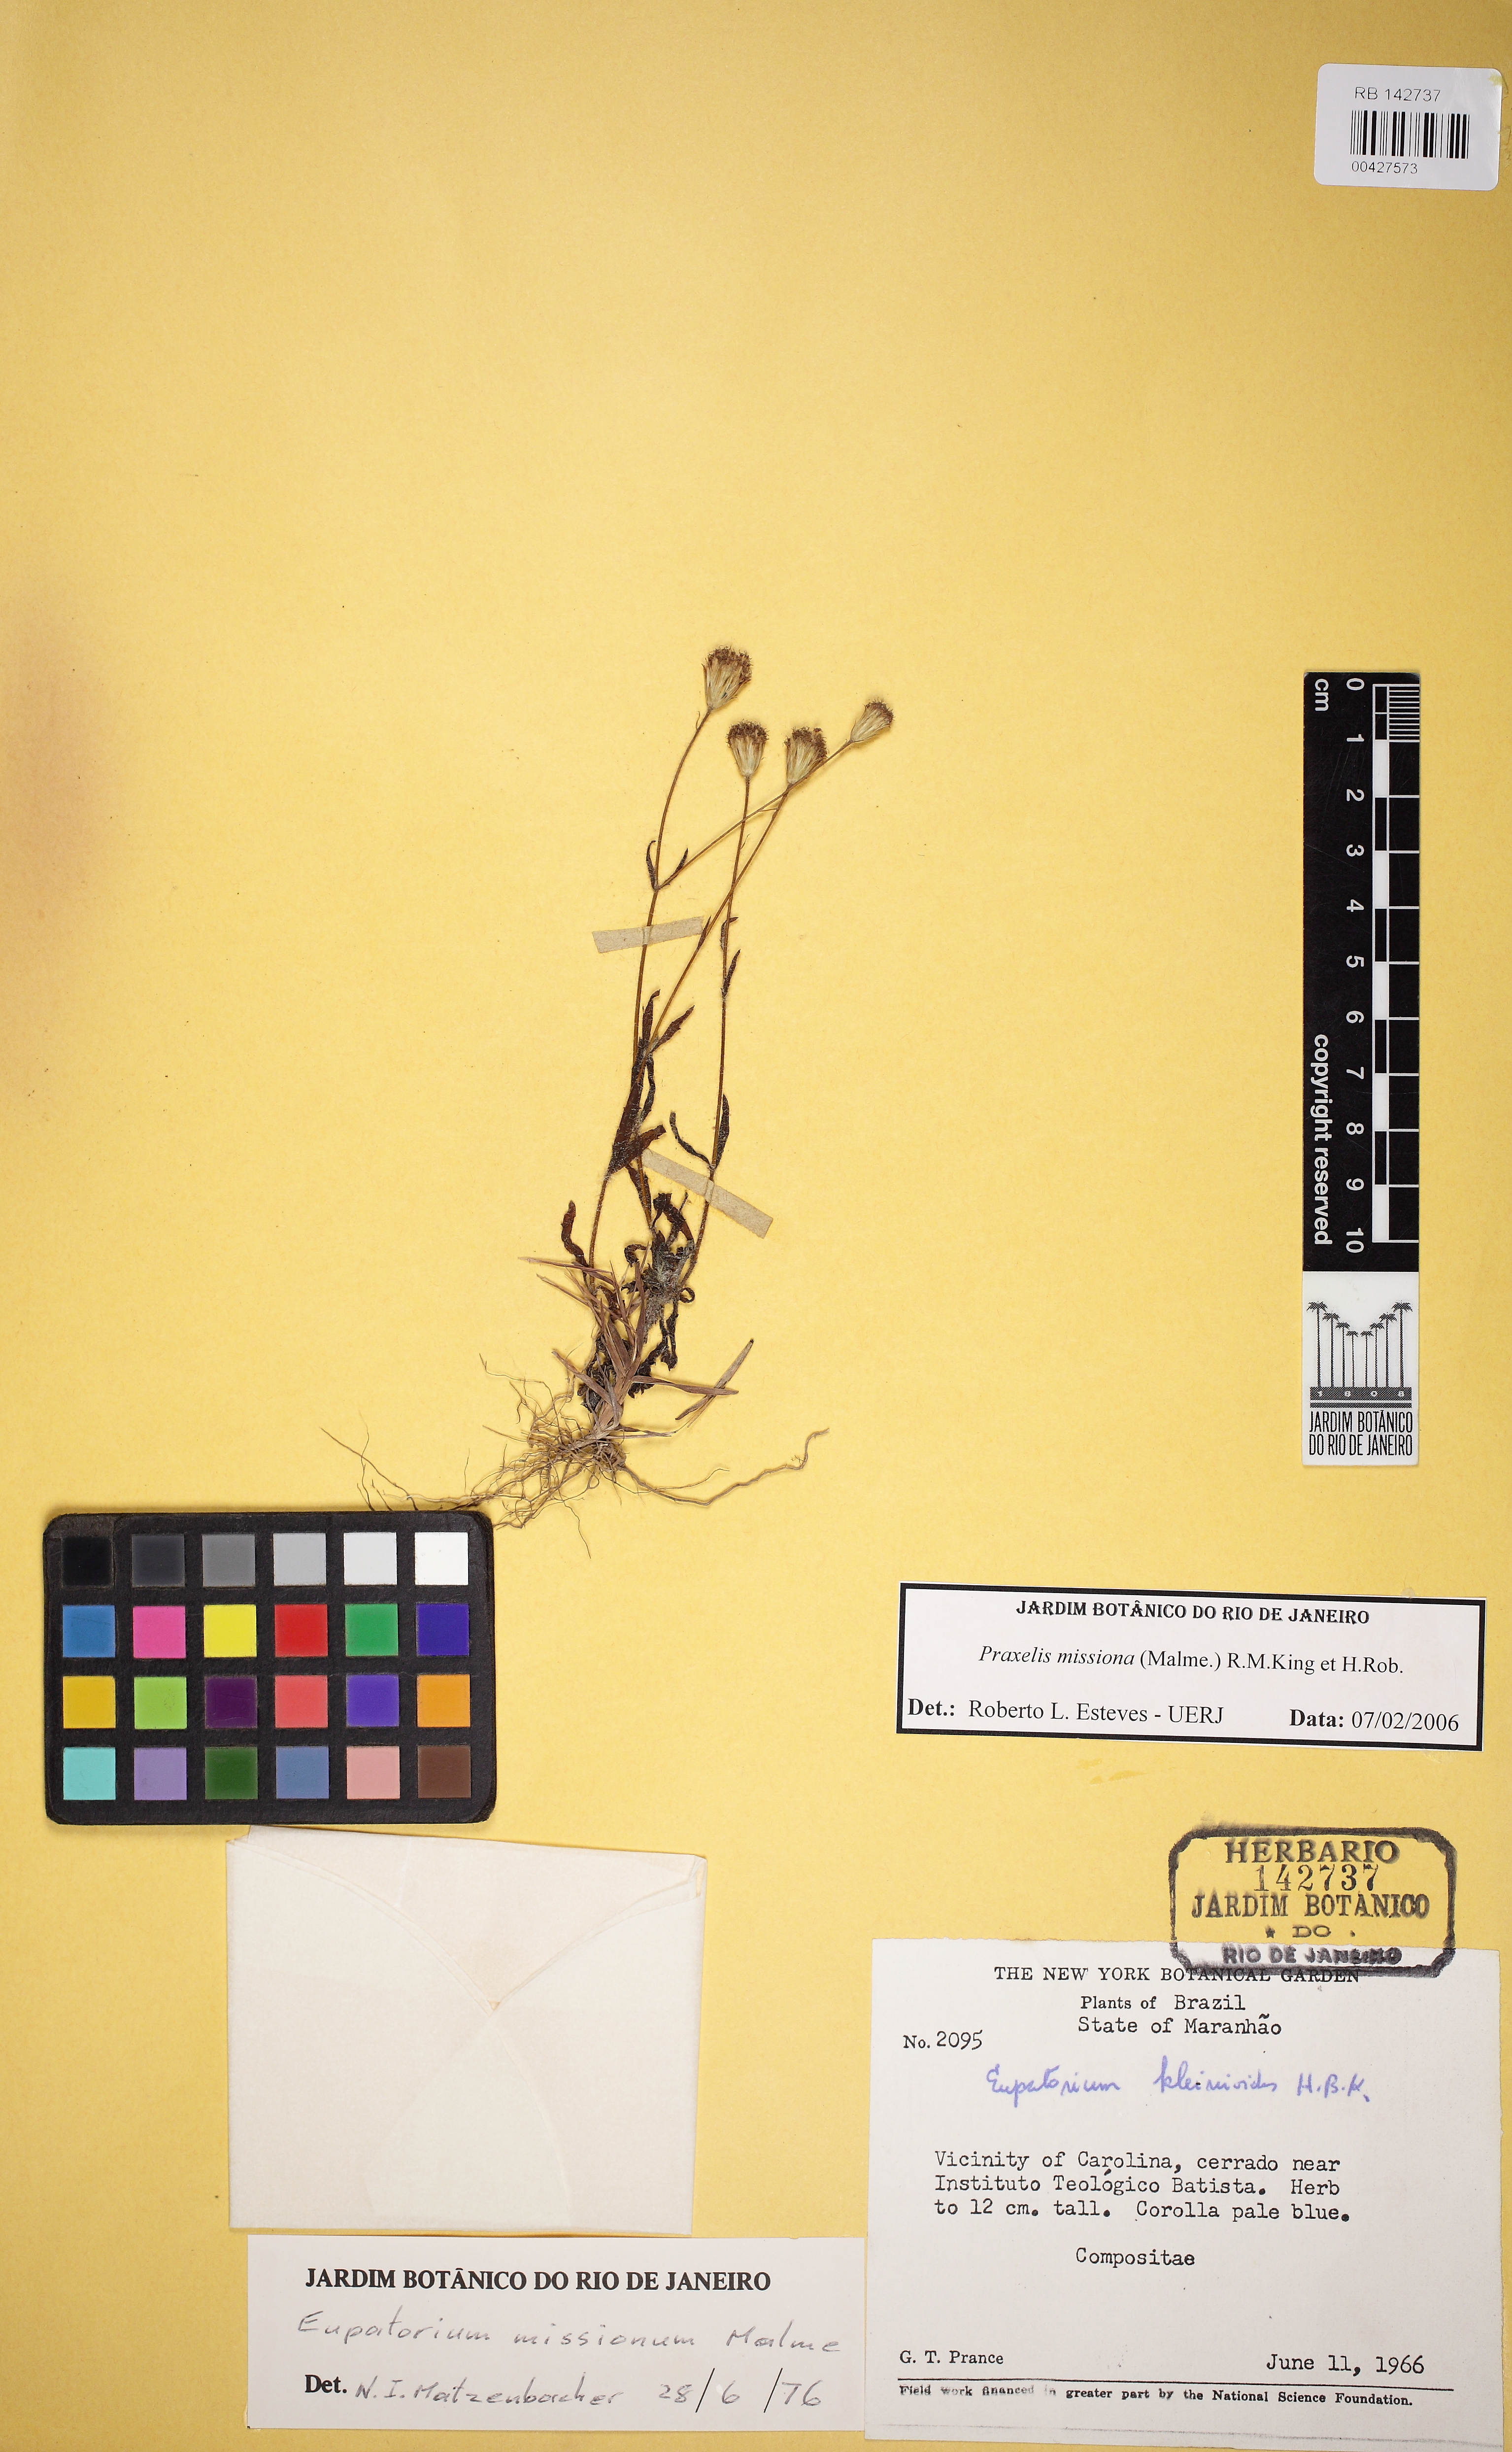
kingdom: Plantae
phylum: Tracheophyta
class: Magnoliopsida
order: Asterales
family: Asteraceae
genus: Praxelis
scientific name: Praxelis kleinioides
